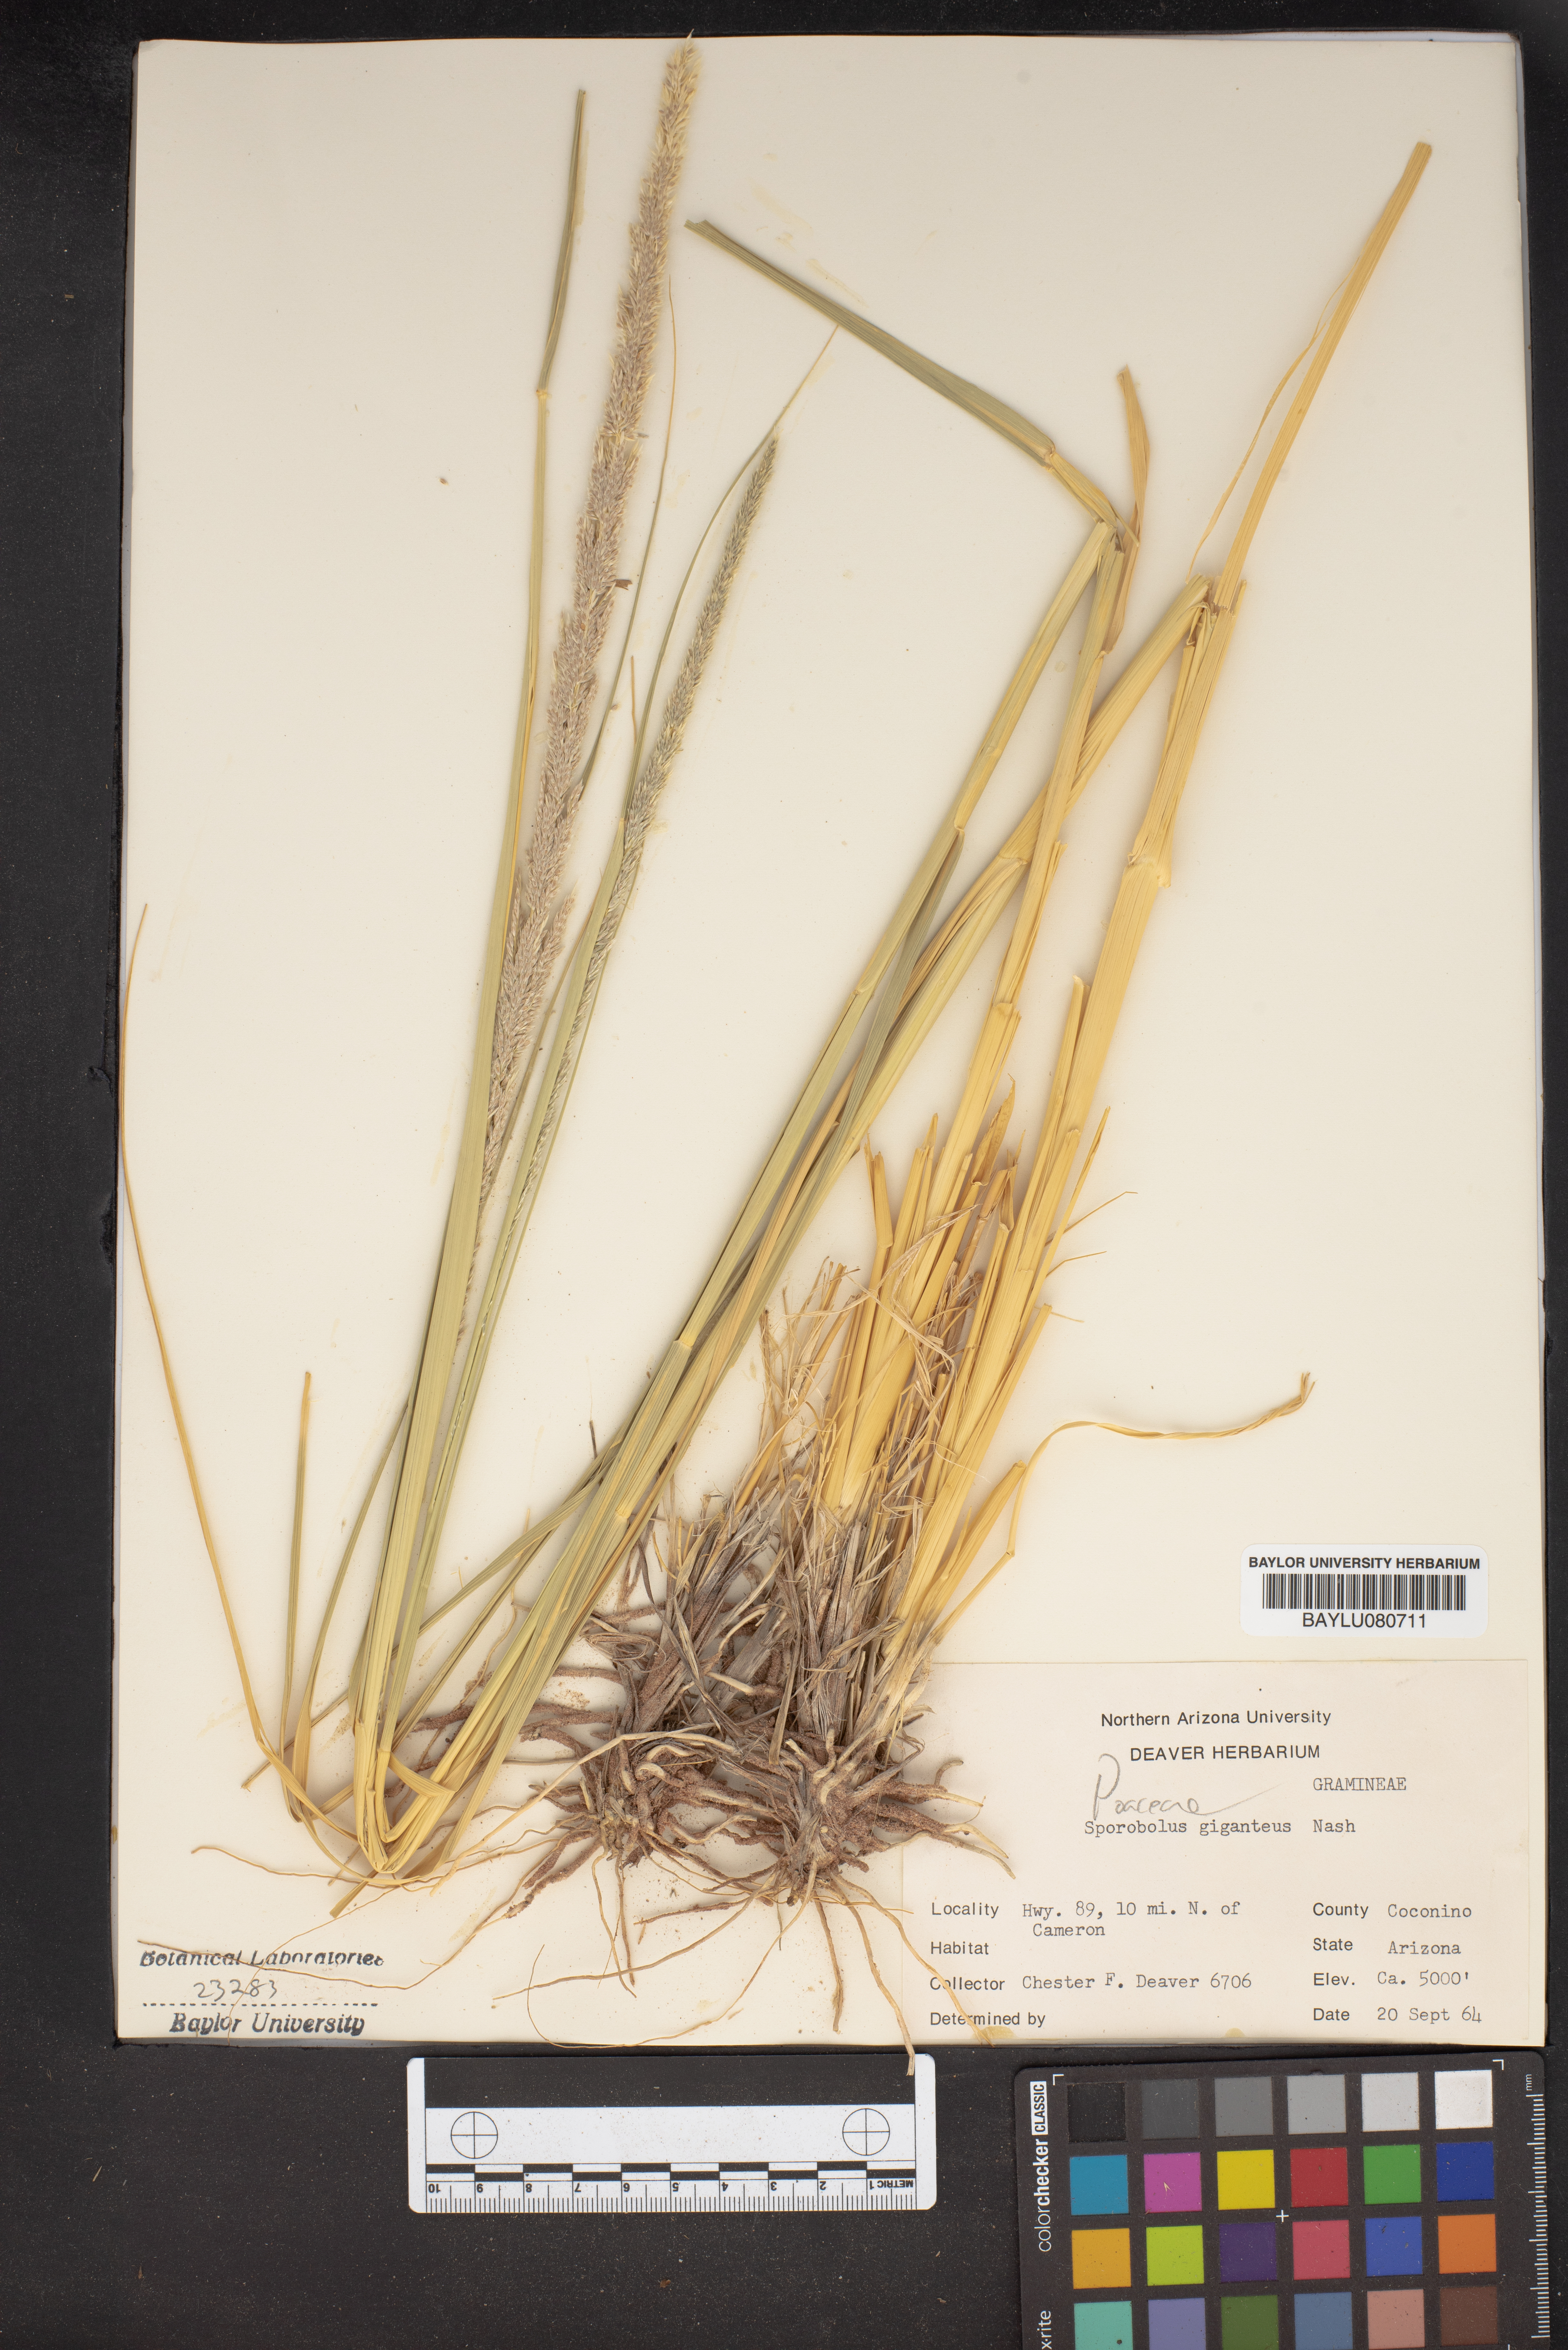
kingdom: Plantae
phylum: Tracheophyta
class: Liliopsida
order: Poales
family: Poaceae
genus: Sporobolus
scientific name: Sporobolus giganteus
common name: Giant dropseed
